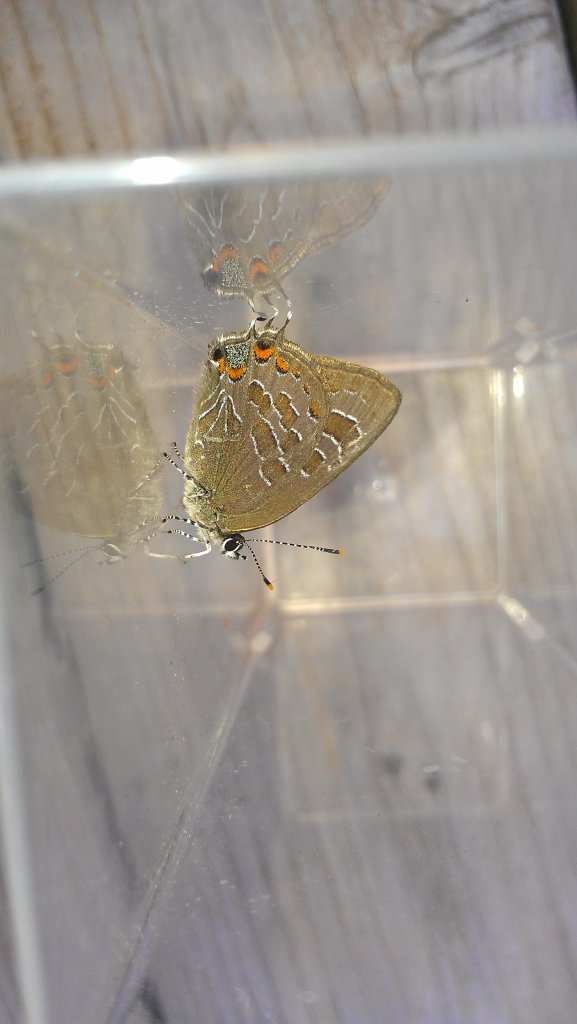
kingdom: Animalia
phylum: Arthropoda
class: Insecta
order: Lepidoptera
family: Lycaenidae
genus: Satyrium
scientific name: Satyrium liparops
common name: Striped Hairstreak
